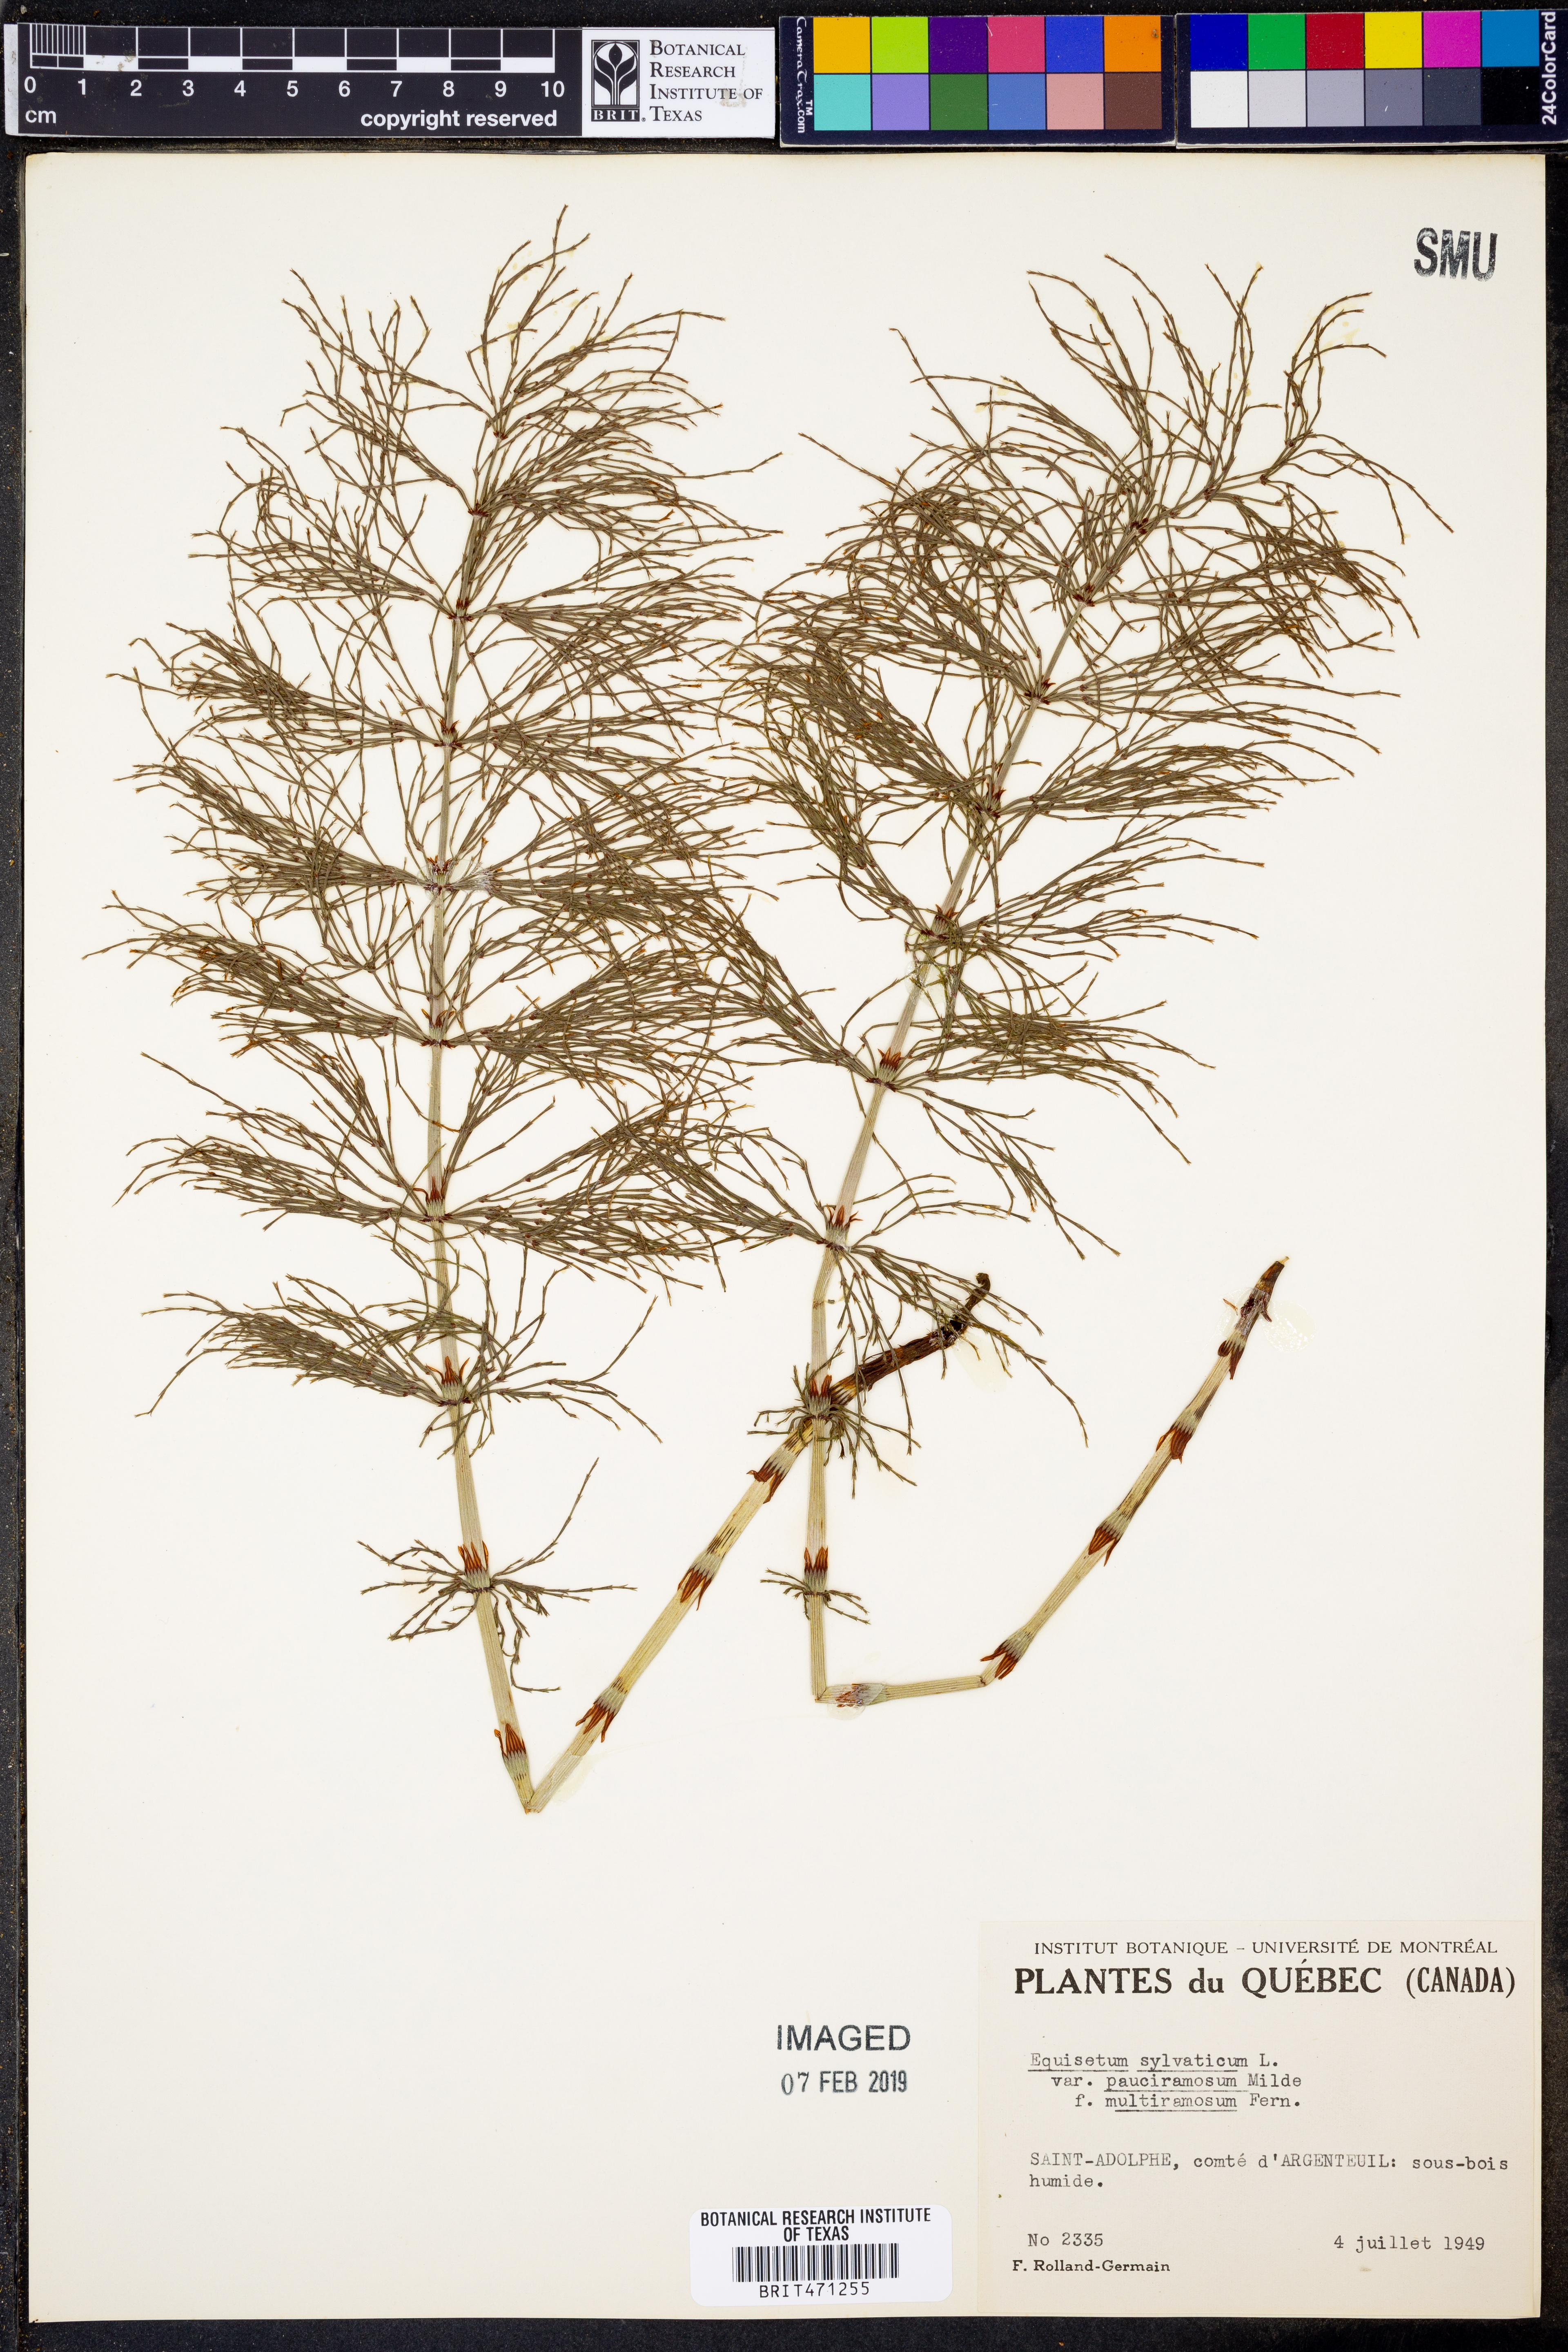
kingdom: Plantae
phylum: Tracheophyta
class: Polypodiopsida
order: Equisetales
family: Equisetaceae
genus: Equisetum
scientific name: Equisetum sylvaticum
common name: Wood horsetail
